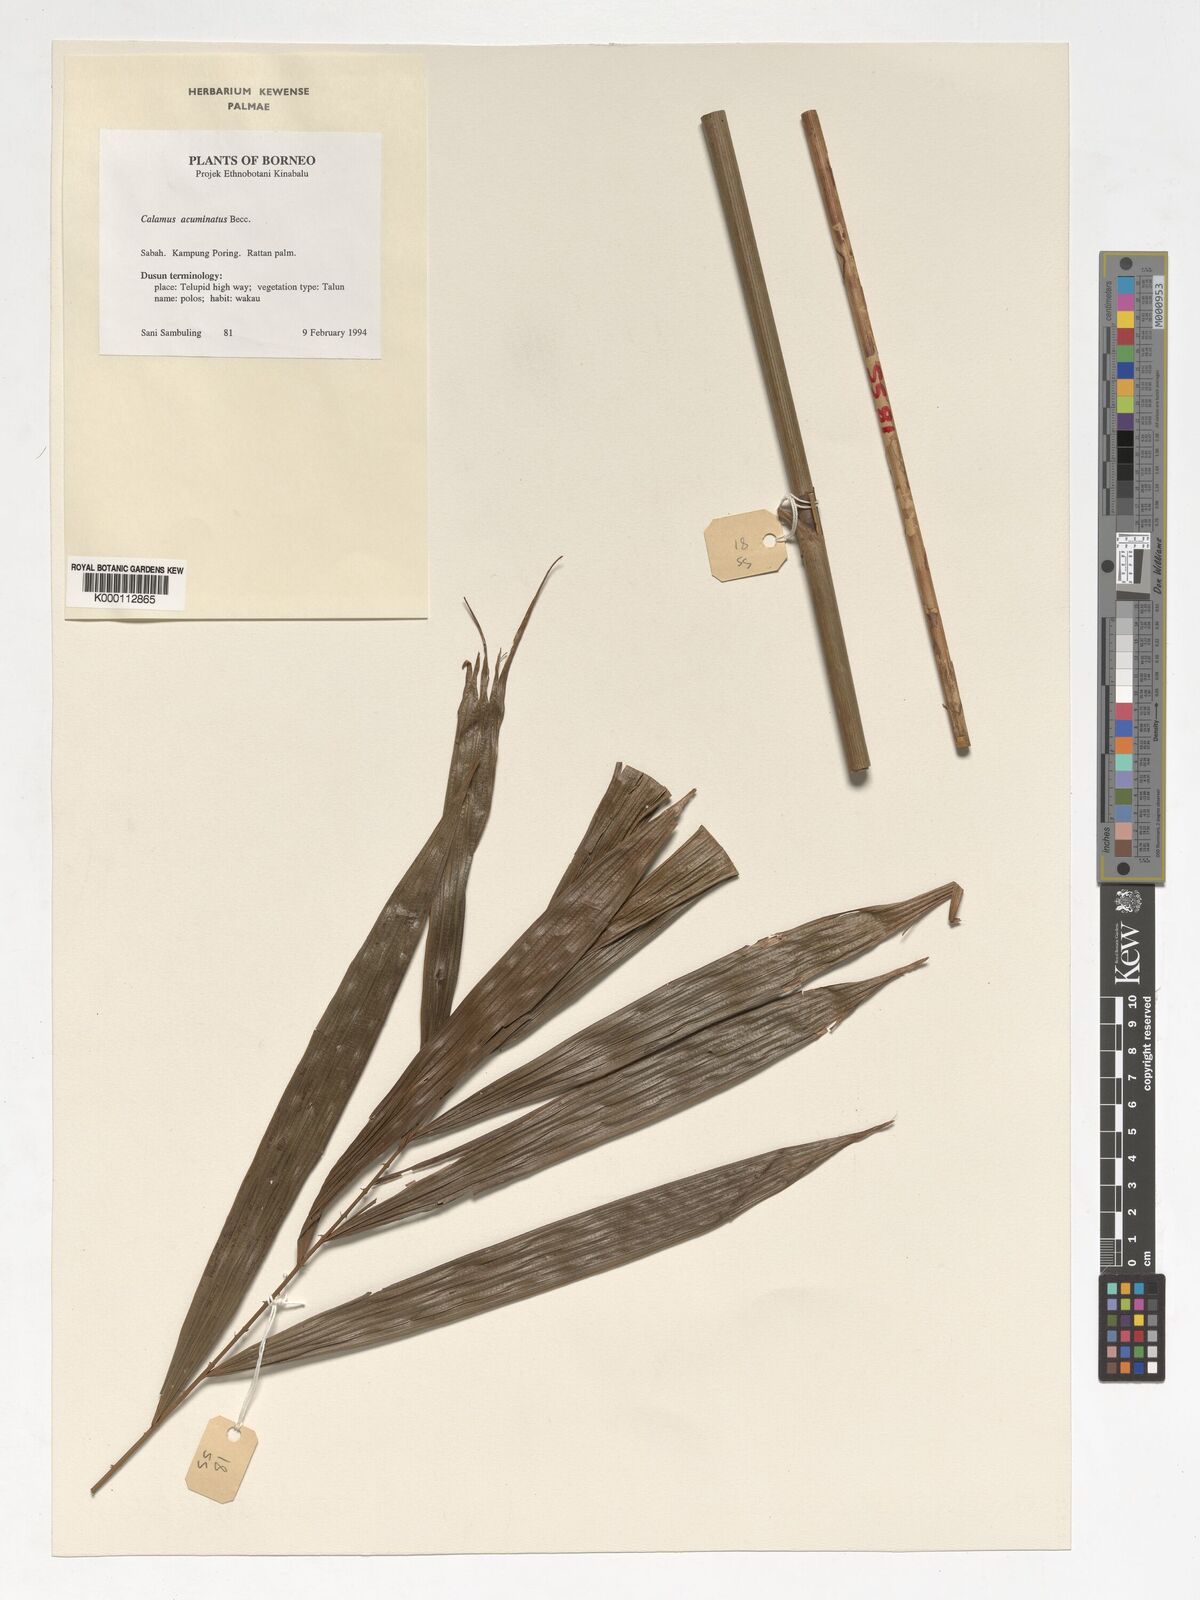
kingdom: Plantae
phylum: Tracheophyta
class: Liliopsida
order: Arecales
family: Arecaceae
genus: Calamus
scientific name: Calamus javensis
